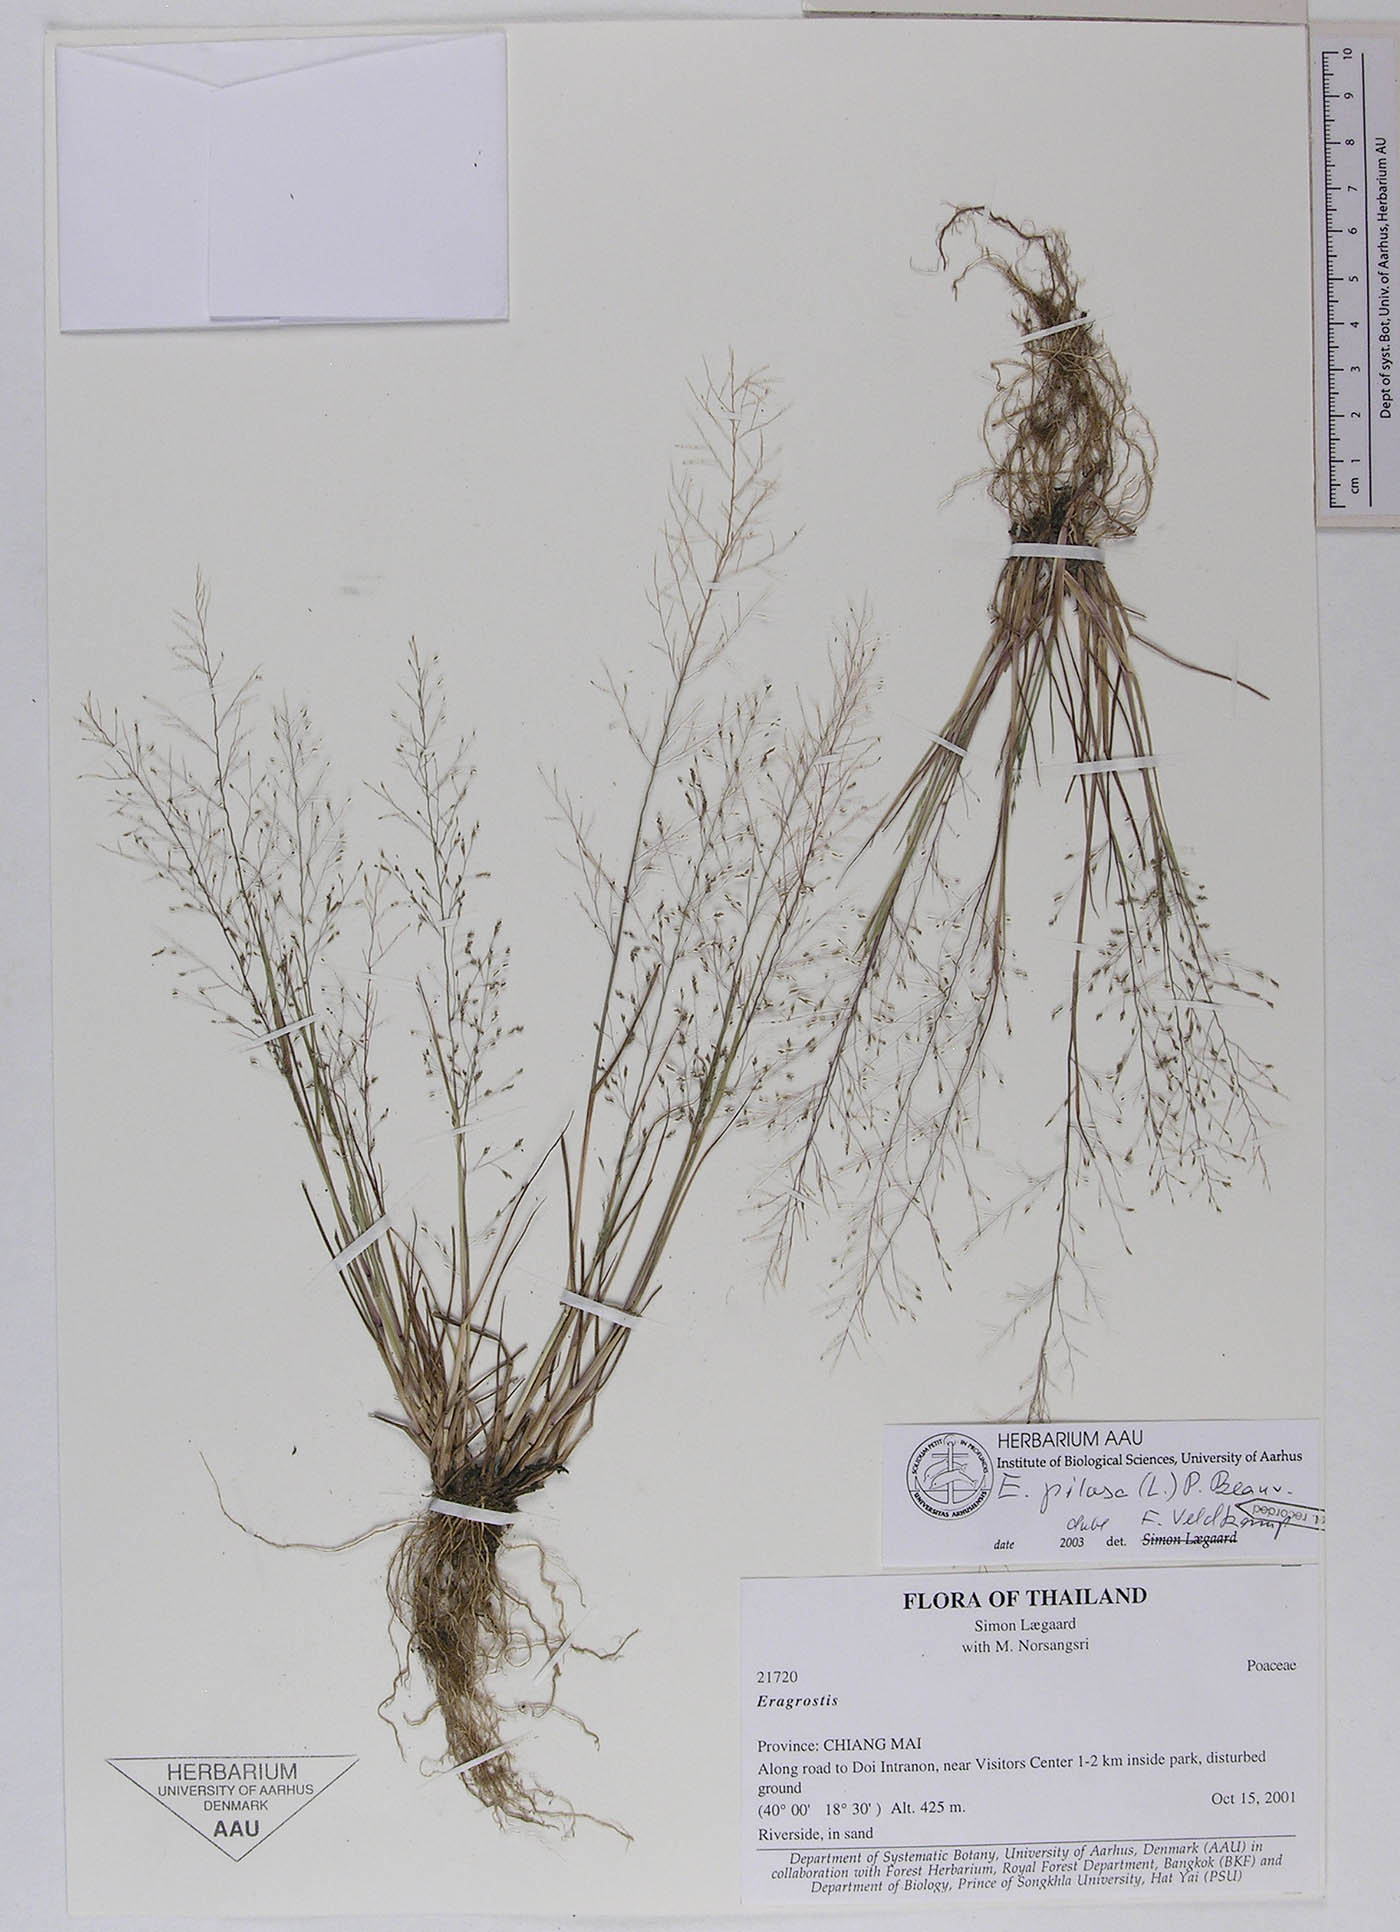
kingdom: Plantae
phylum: Tracheophyta
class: Liliopsida
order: Poales
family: Poaceae
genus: Eragrostis
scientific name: Eragrostis pilosa
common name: Indian lovegrass
